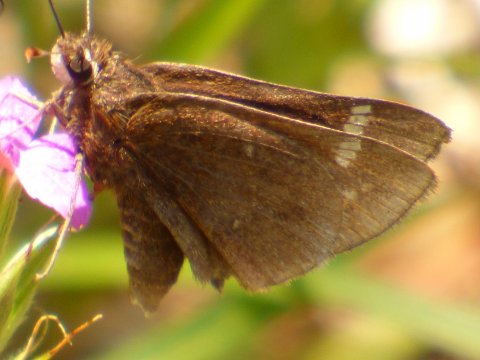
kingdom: Animalia
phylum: Arthropoda
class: Insecta
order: Lepidoptera
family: Hesperiidae
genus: Atrytonopsis
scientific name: Atrytonopsis hianna
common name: Dusted Skipper
